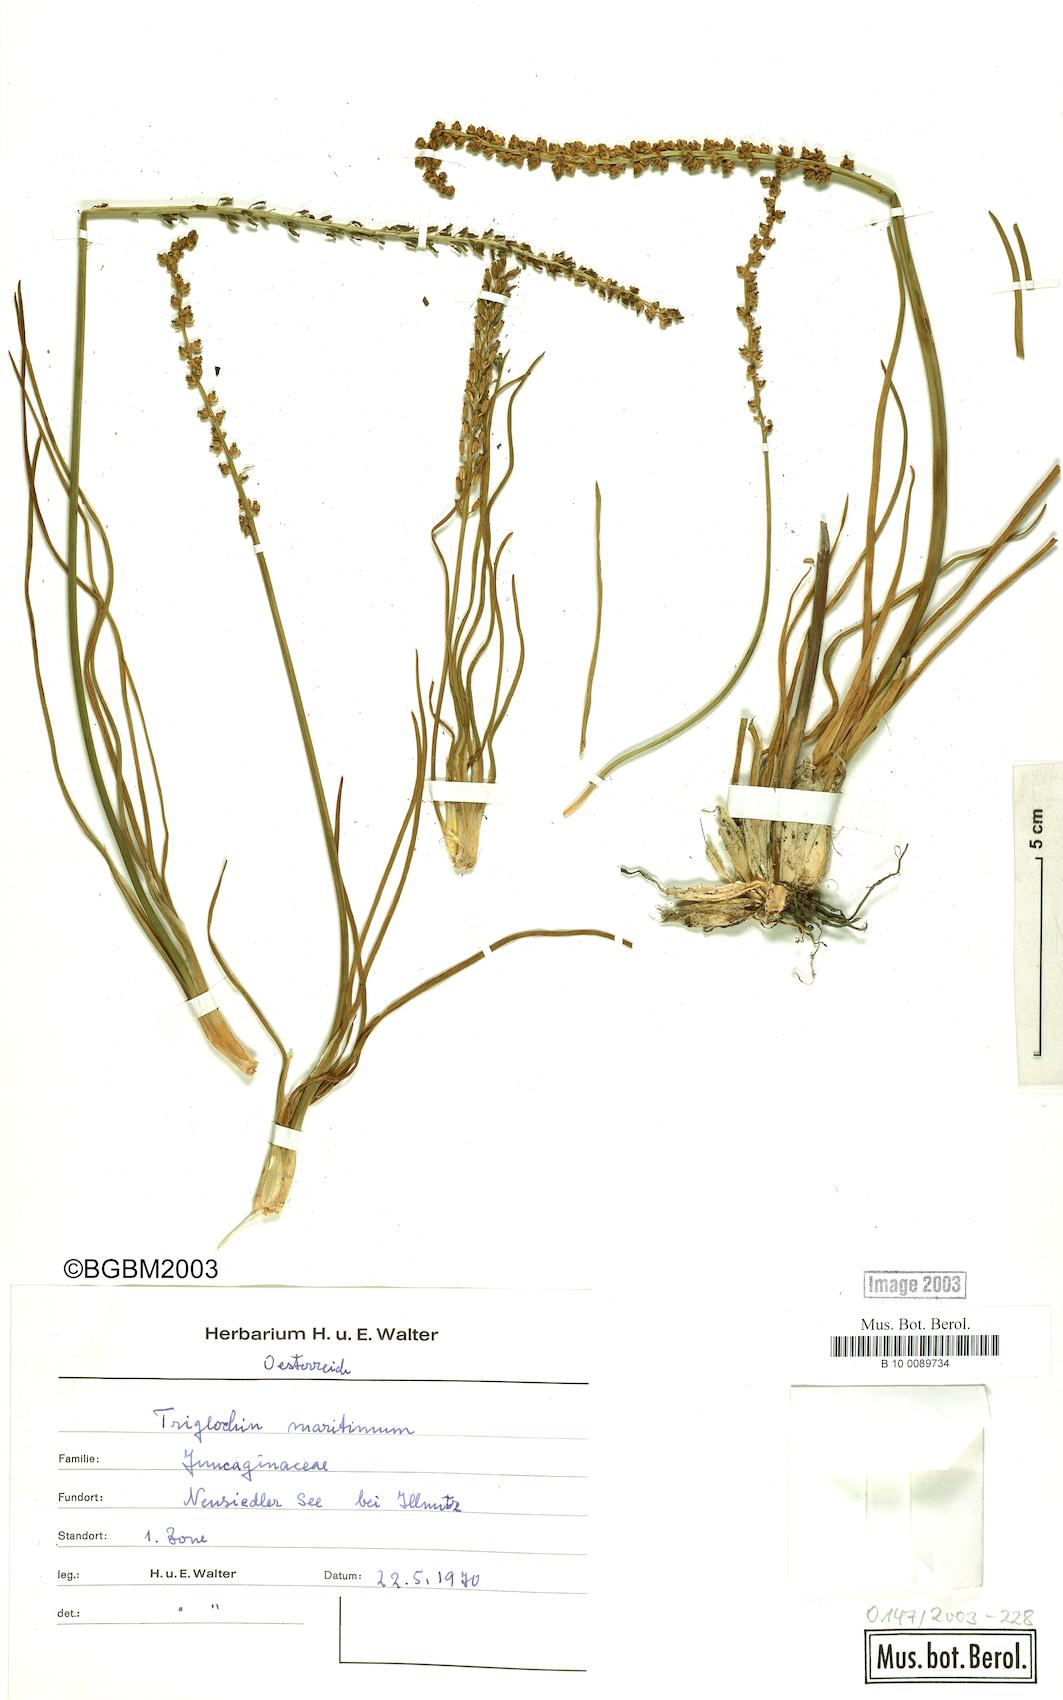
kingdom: Plantae
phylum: Tracheophyta
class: Liliopsida
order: Alismatales
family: Juncaginaceae
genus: Triglochin
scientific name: Triglochin maritima
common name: Sea arrowgrass
